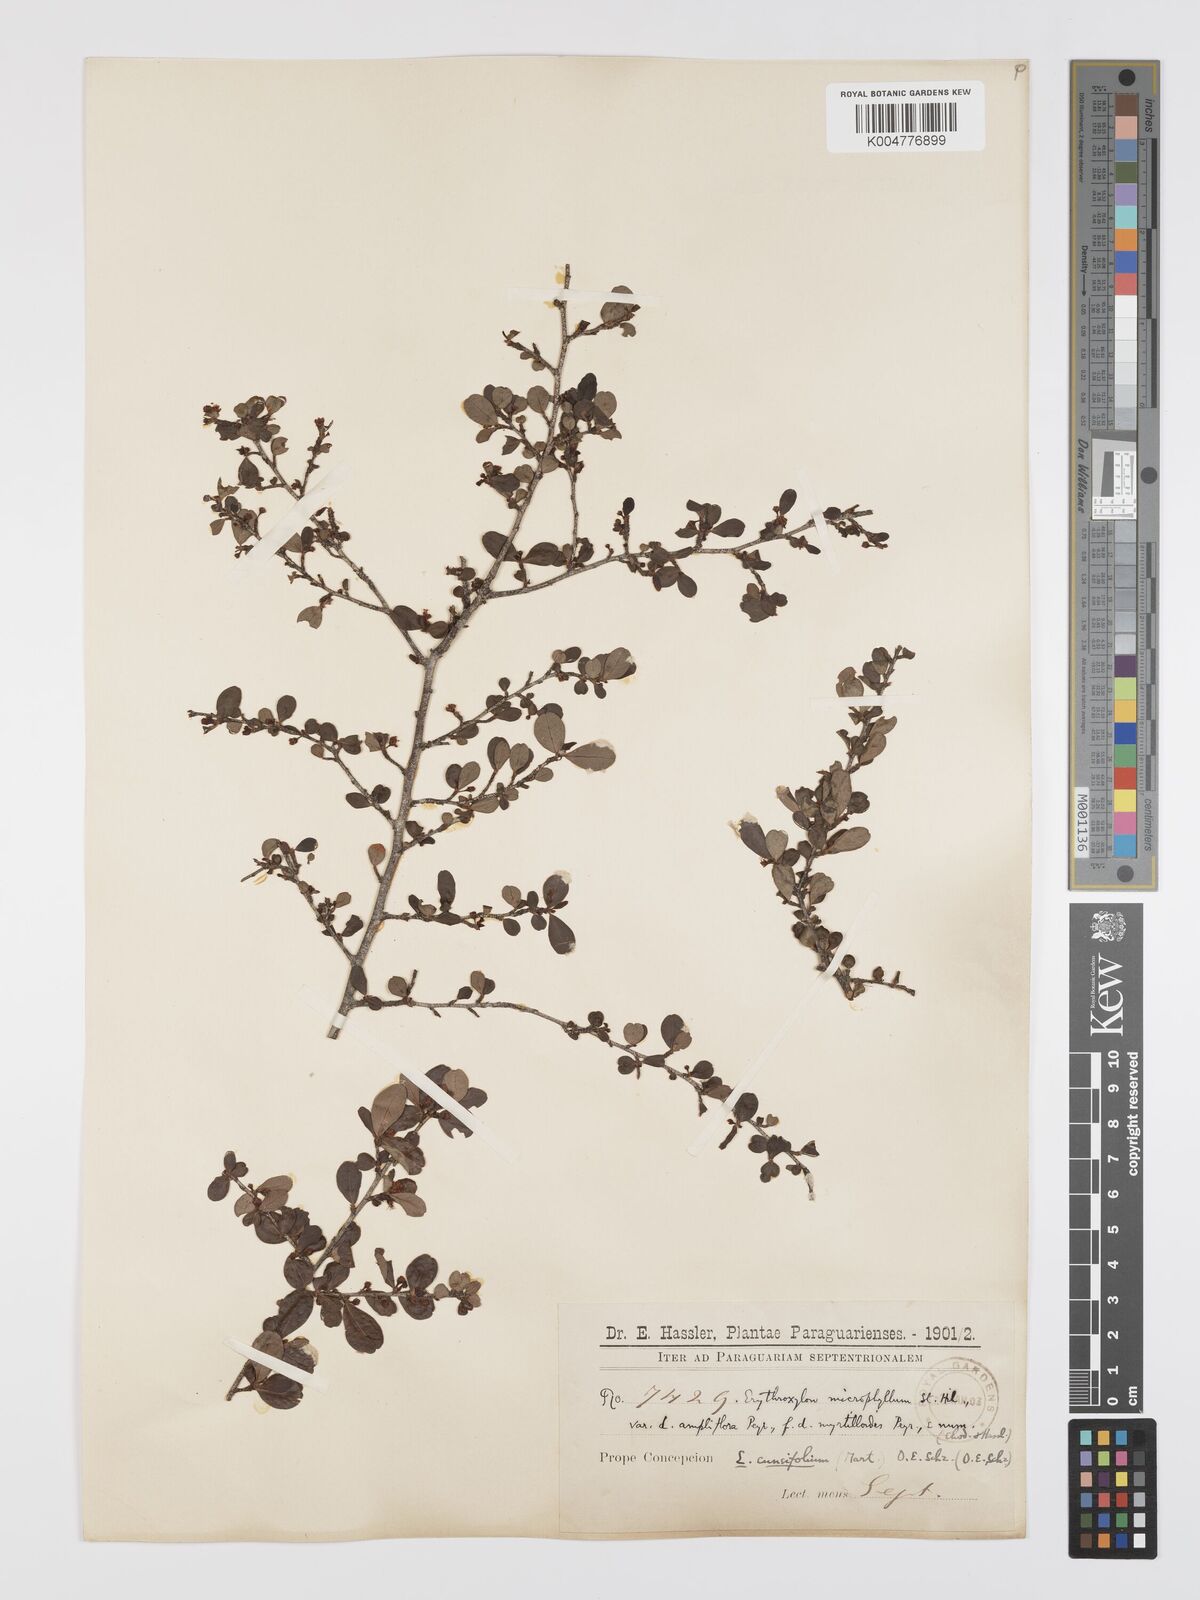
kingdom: Plantae
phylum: Tracheophyta
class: Magnoliopsida
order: Malpighiales
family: Erythroxylaceae
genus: Erythroxylum
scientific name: Erythroxylum cuneifolium
